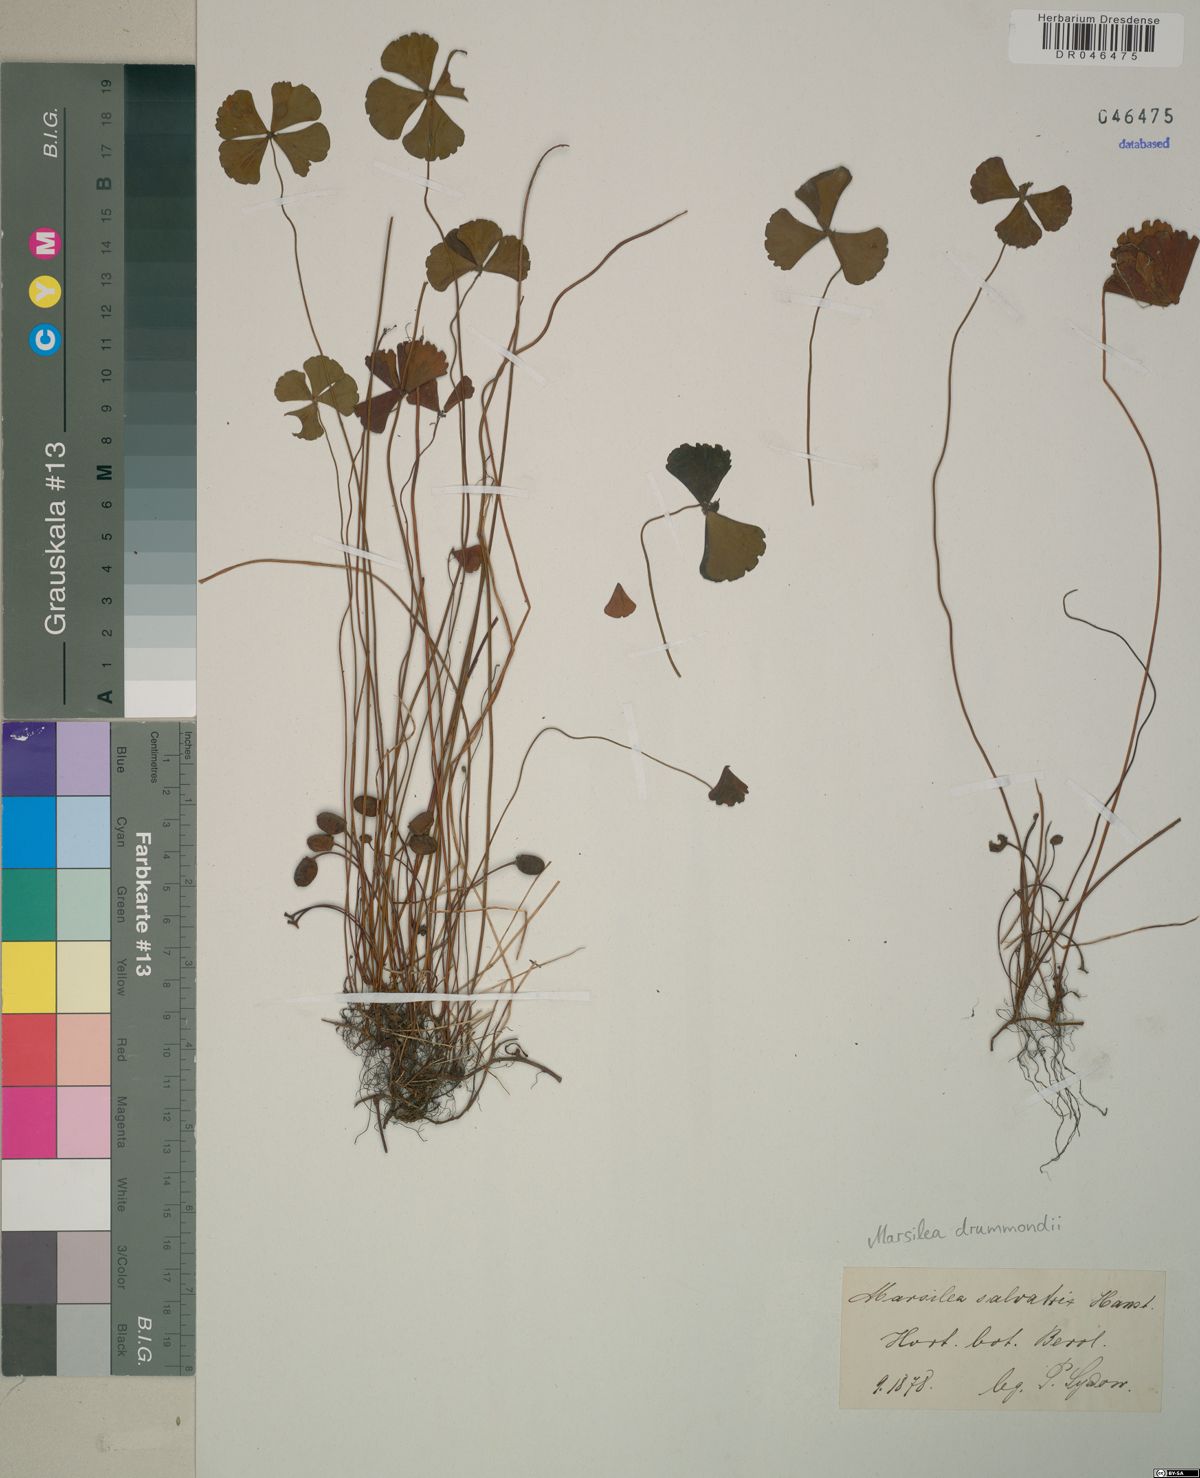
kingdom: Plantae
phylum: Tracheophyta
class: Polypodiopsida
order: Salviniales
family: Marsileaceae
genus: Marsilea
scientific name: Marsilea drummondii
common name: Nardoo
